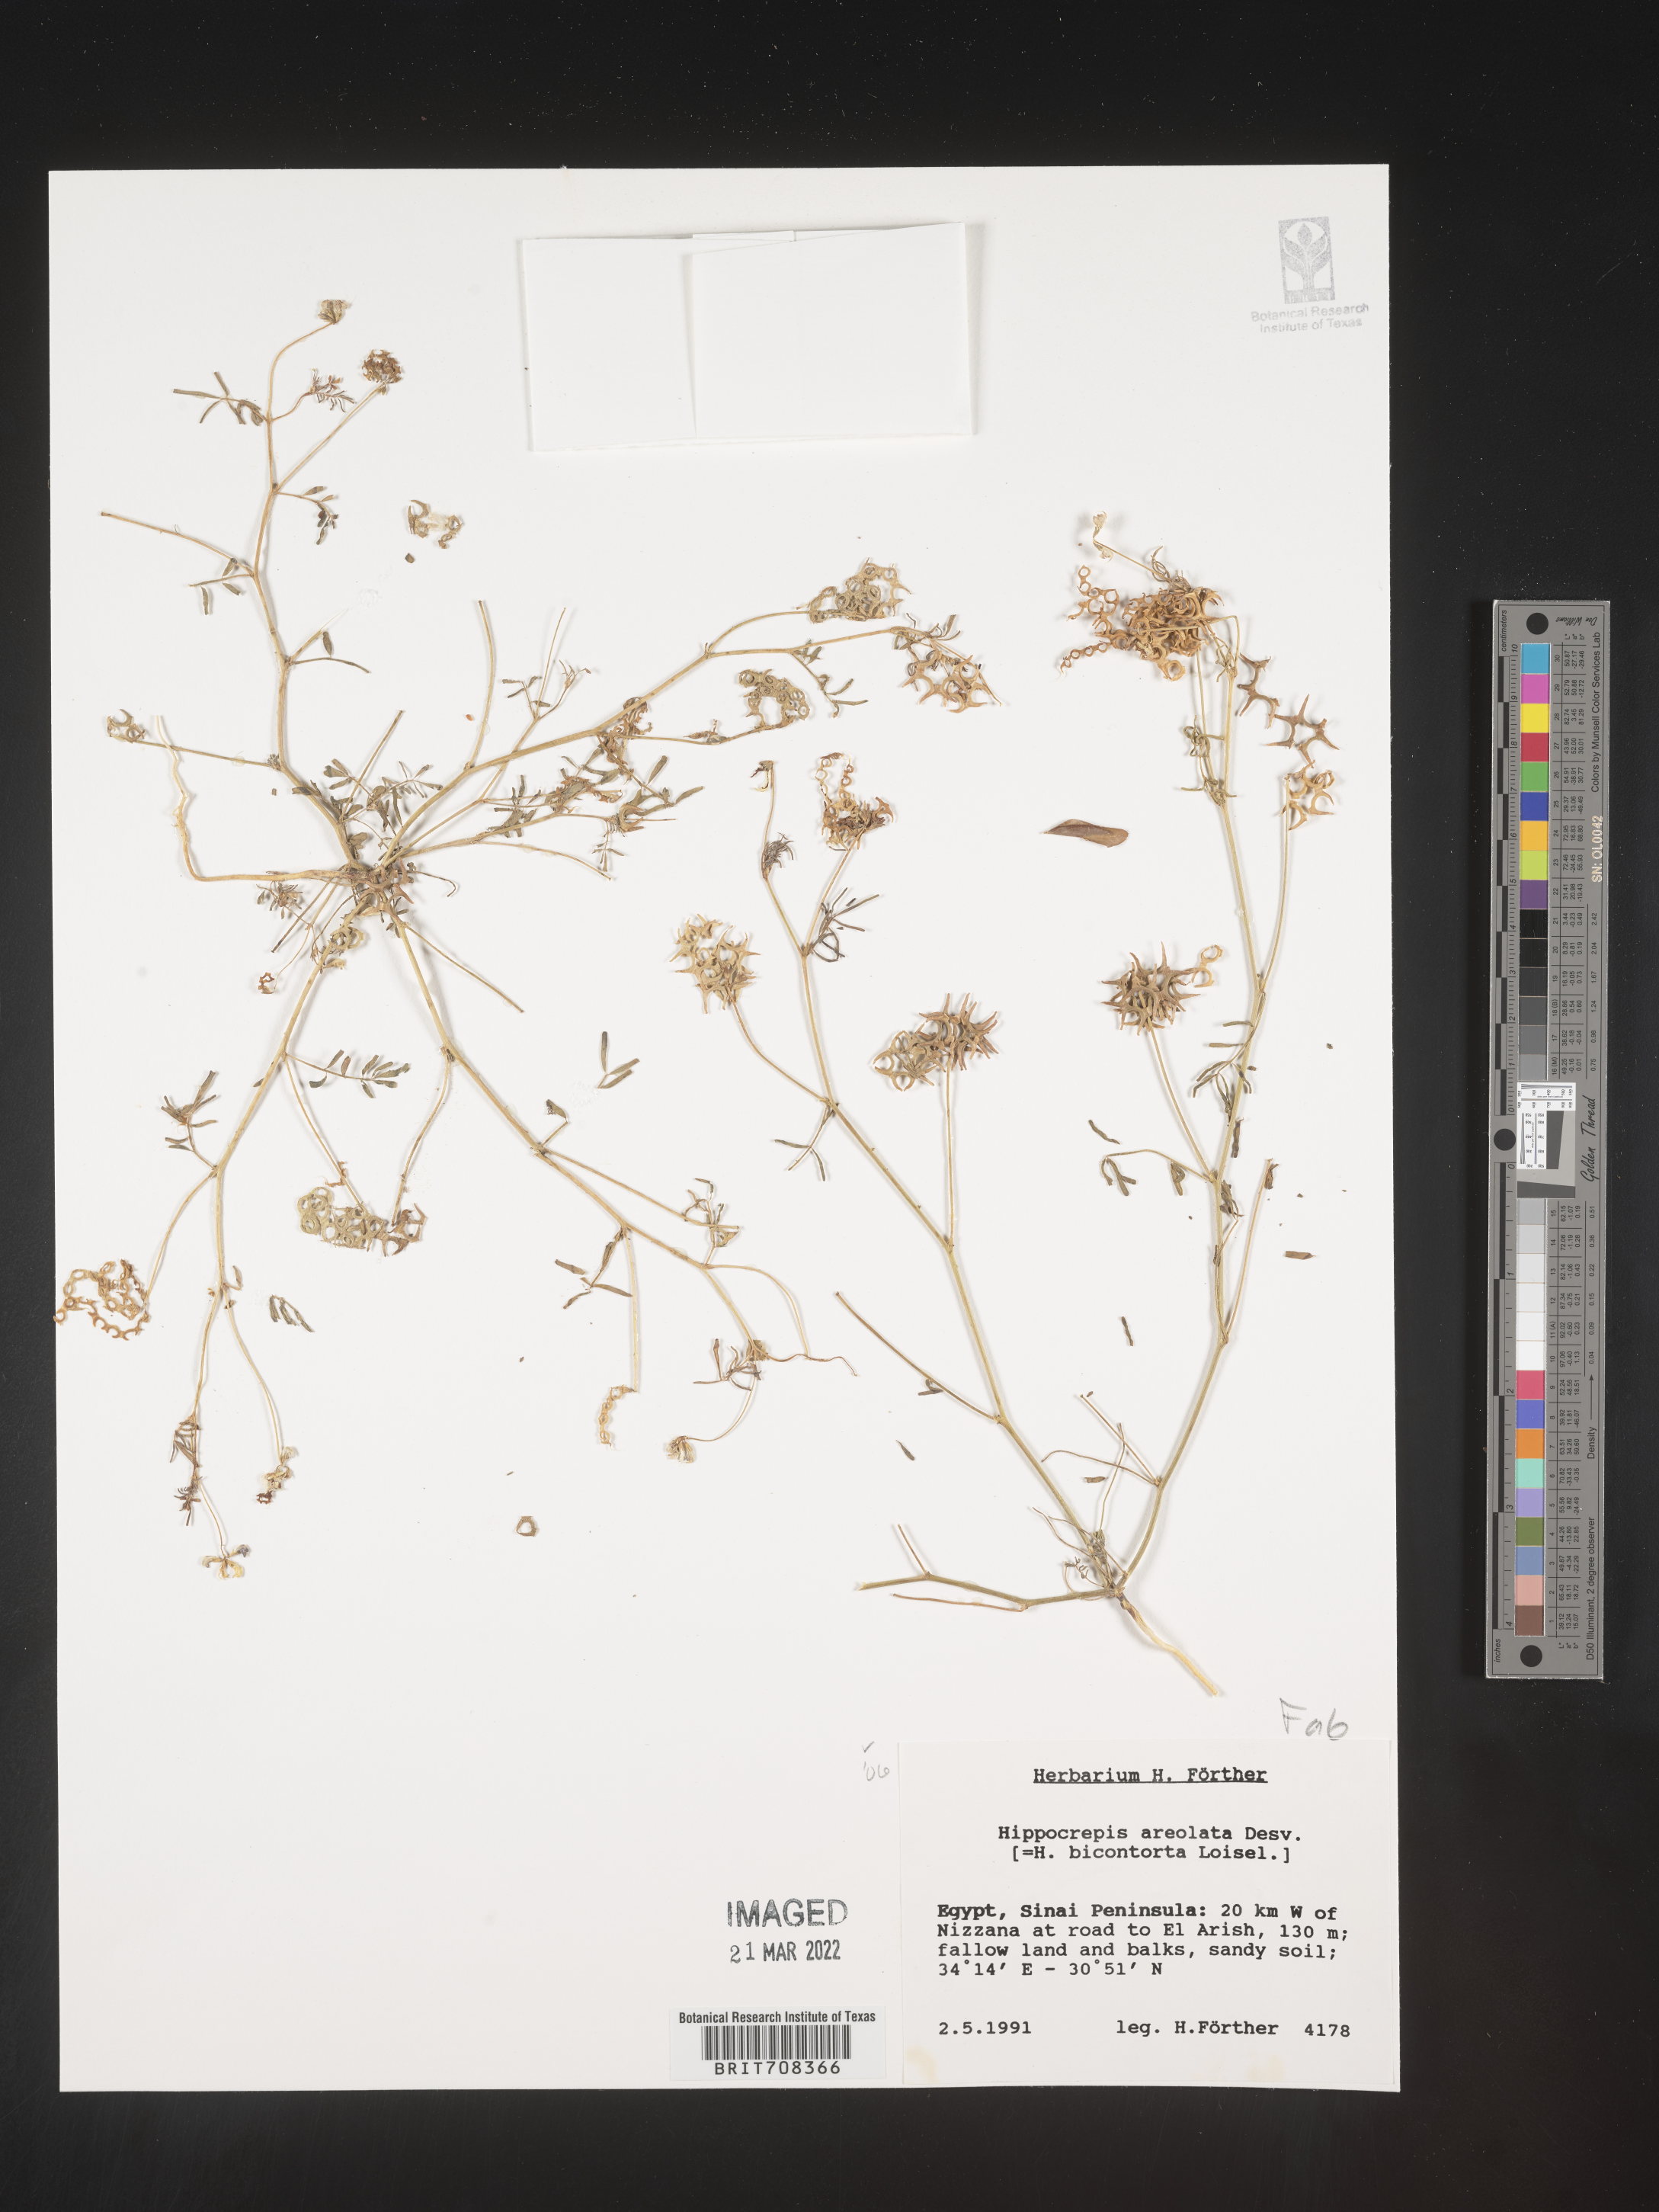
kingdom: Plantae
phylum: Tracheophyta
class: Magnoliopsida
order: Fabales
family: Fabaceae
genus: Hippocrepis
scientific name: Hippocrepis
